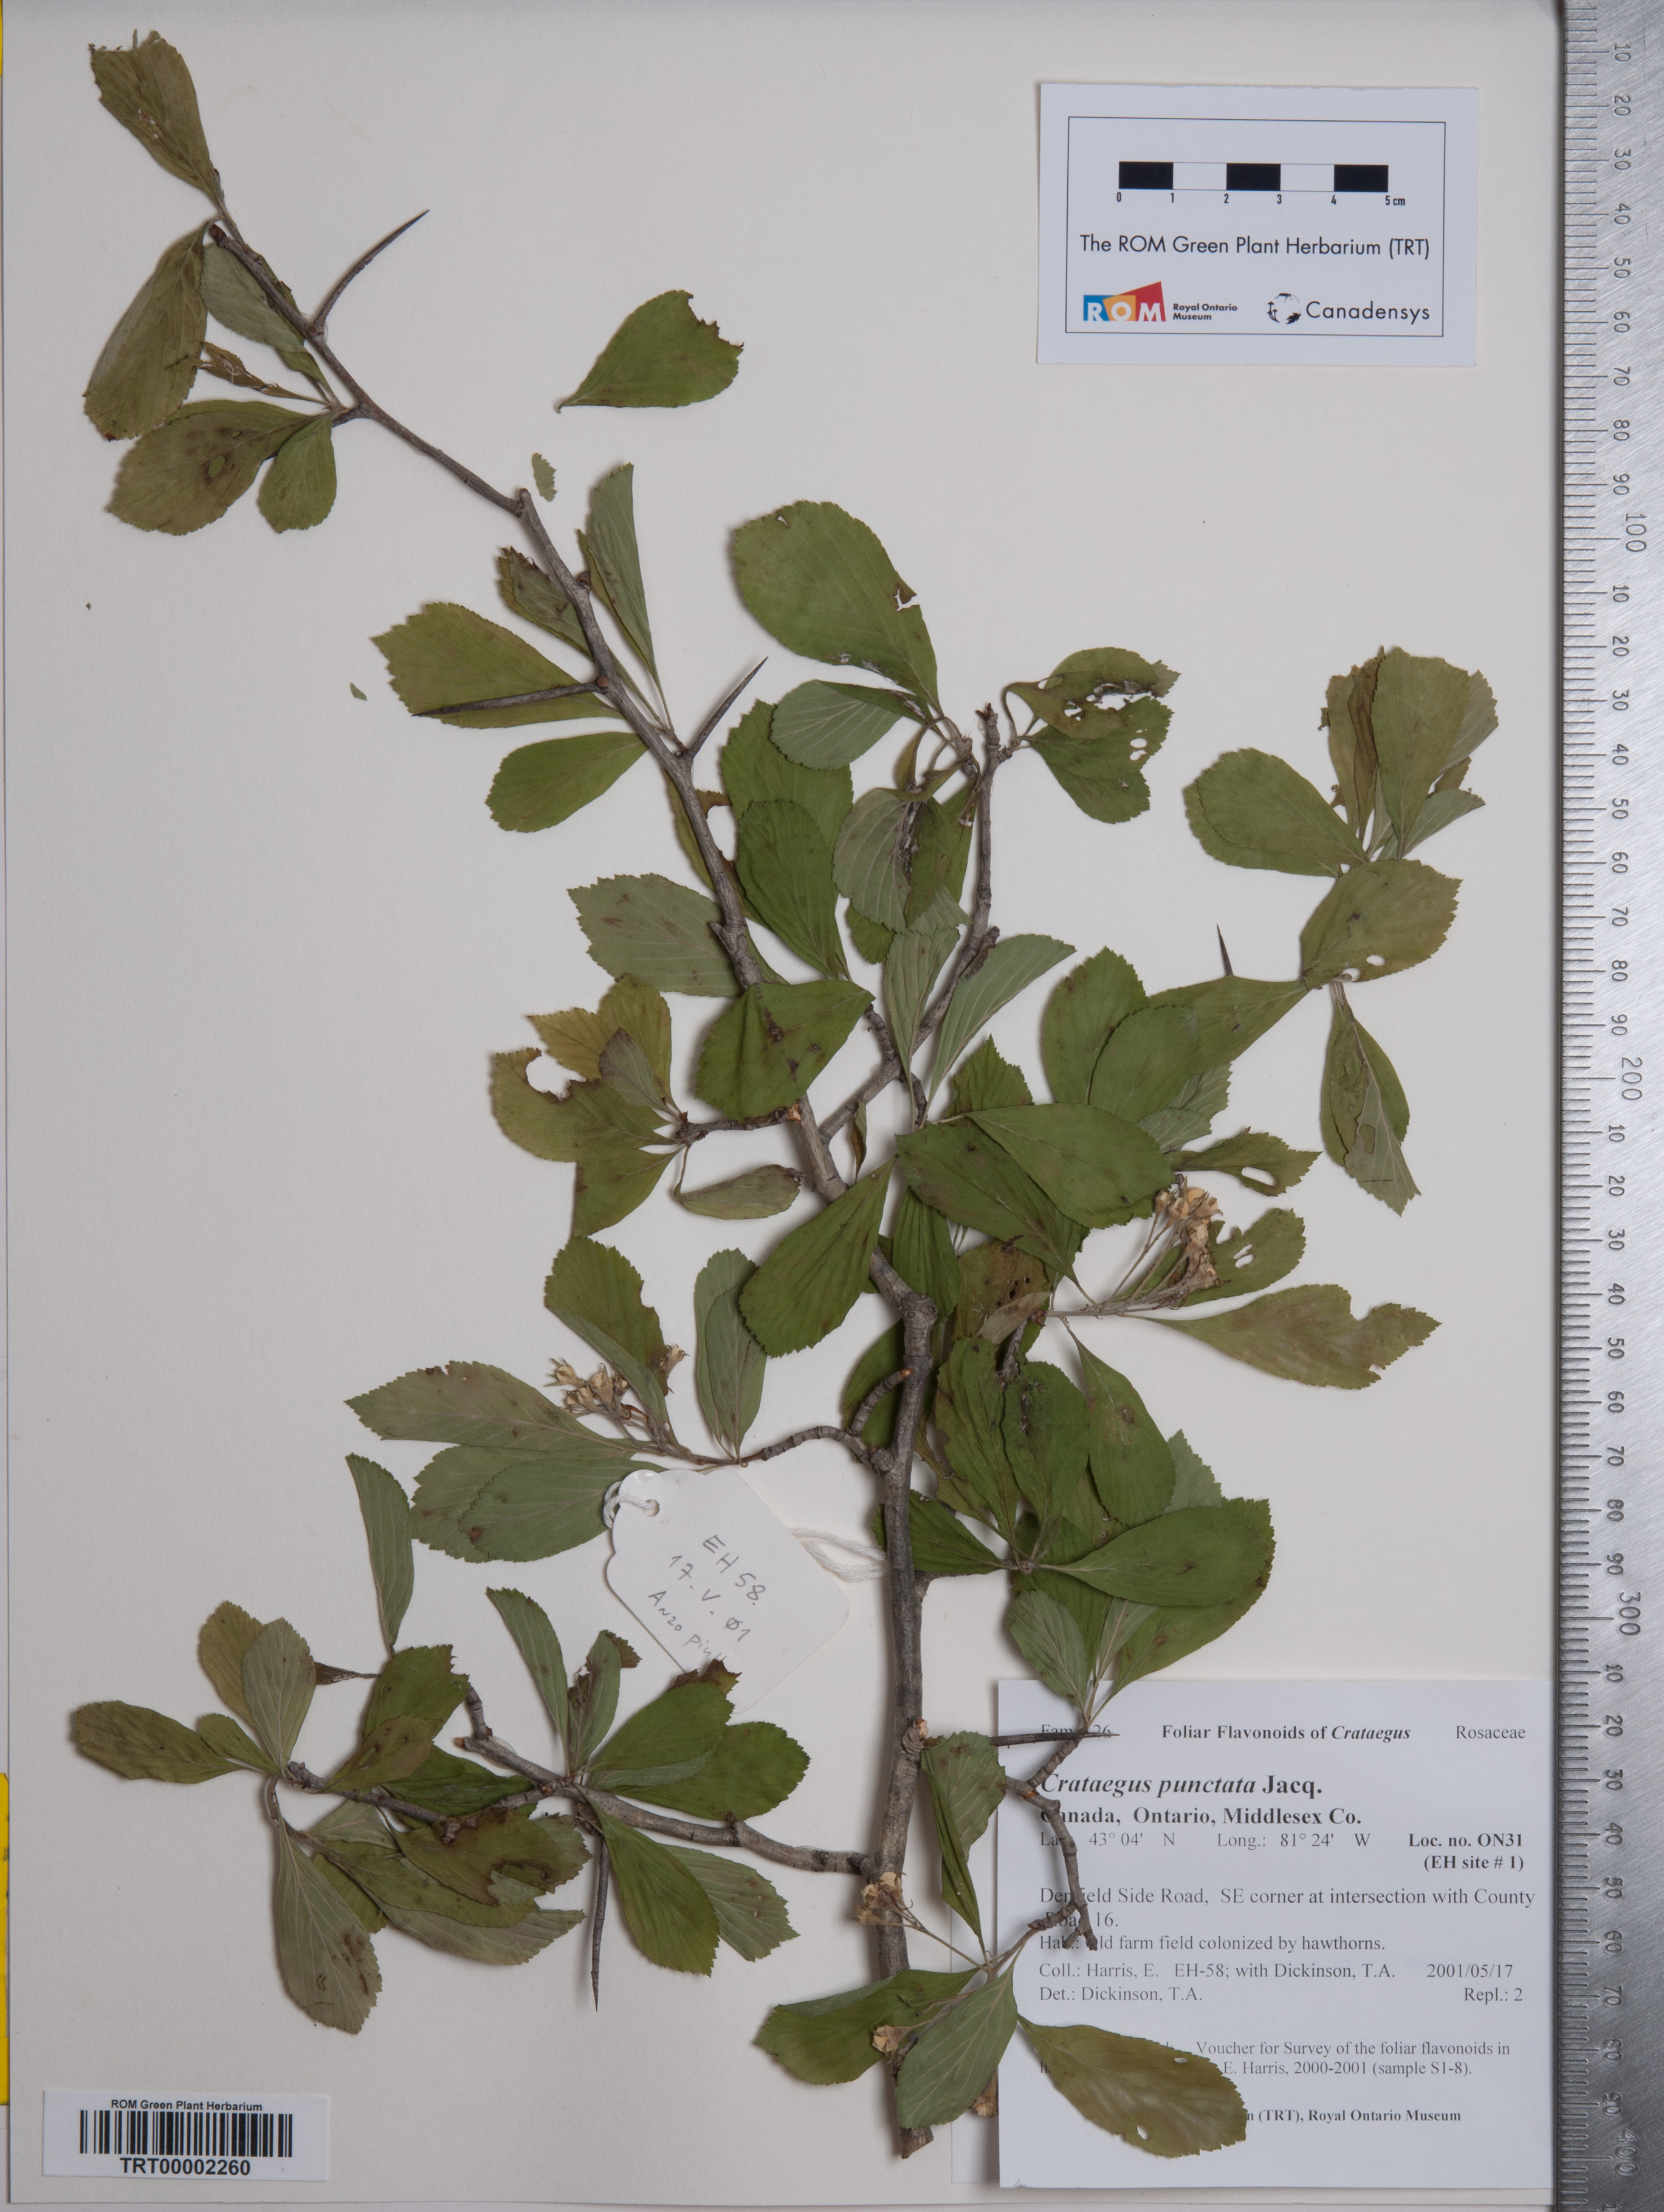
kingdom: Plantae
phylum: Tracheophyta
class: Magnoliopsida
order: Rosales
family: Rosaceae
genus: Crataegus
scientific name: Crataegus punctata
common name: Dotted hawthorn
